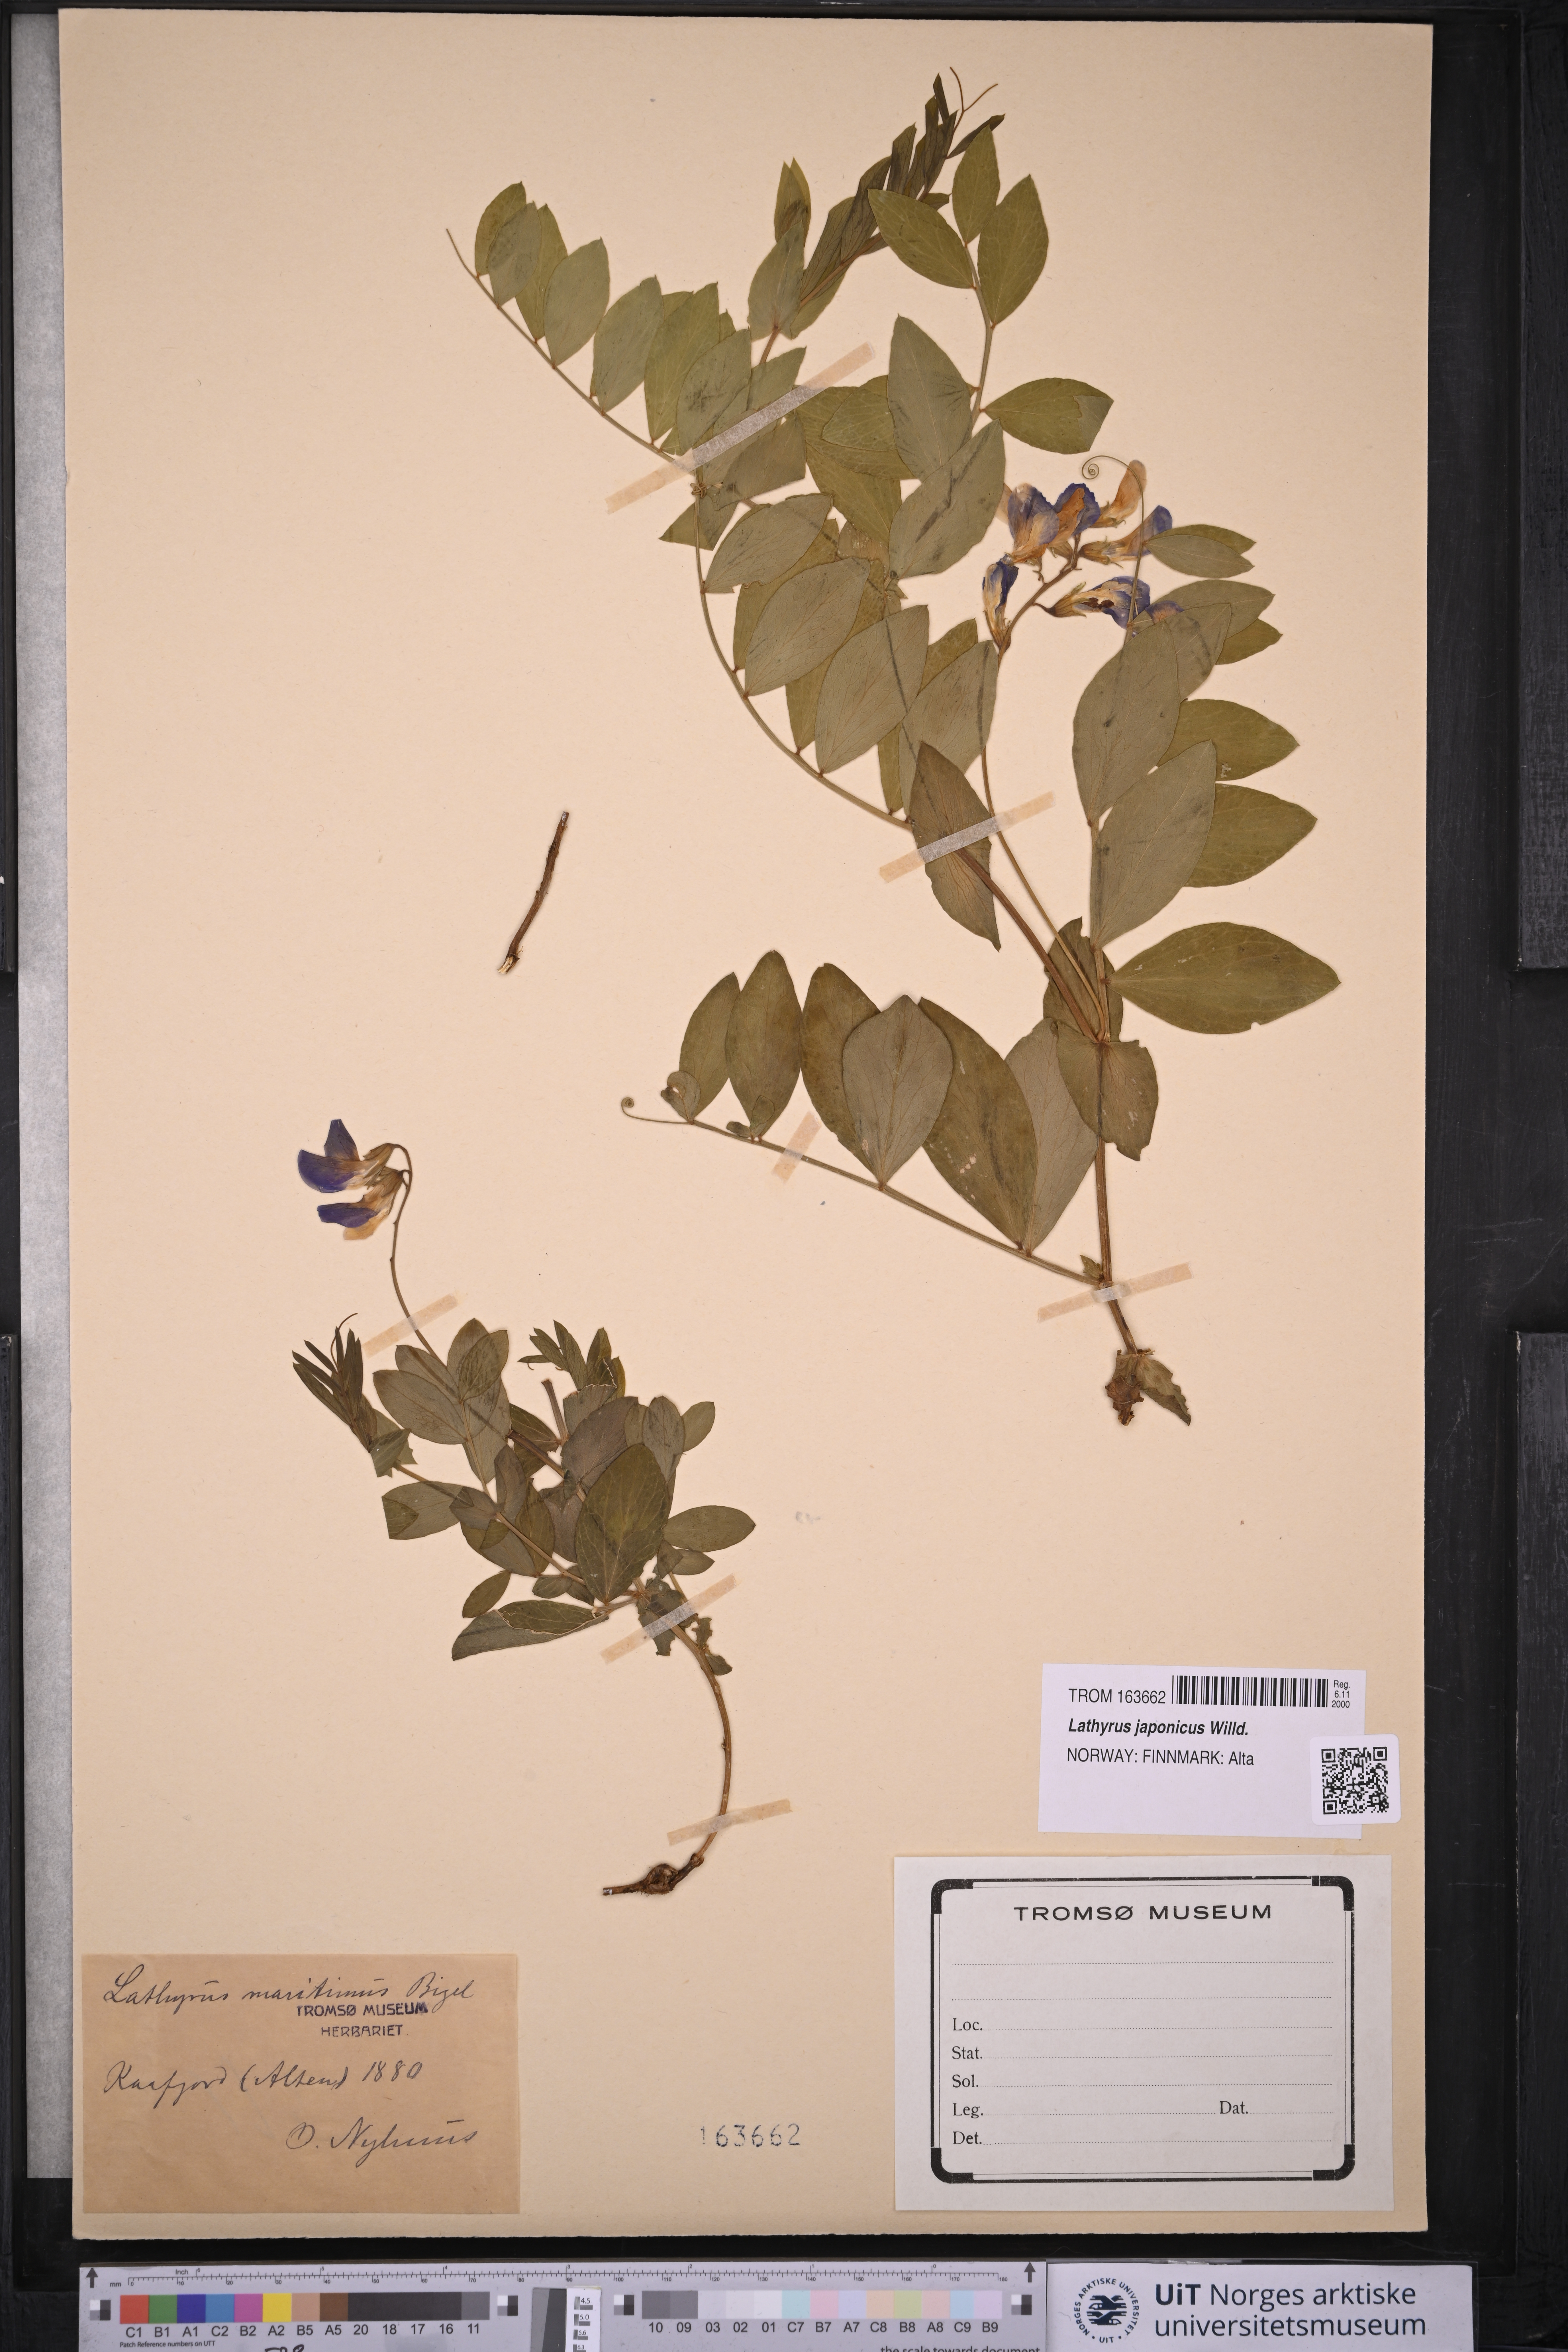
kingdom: Plantae
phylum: Tracheophyta
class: Magnoliopsida
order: Fabales
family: Fabaceae
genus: Lathyrus
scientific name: Lathyrus japonicus
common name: Sea pea
